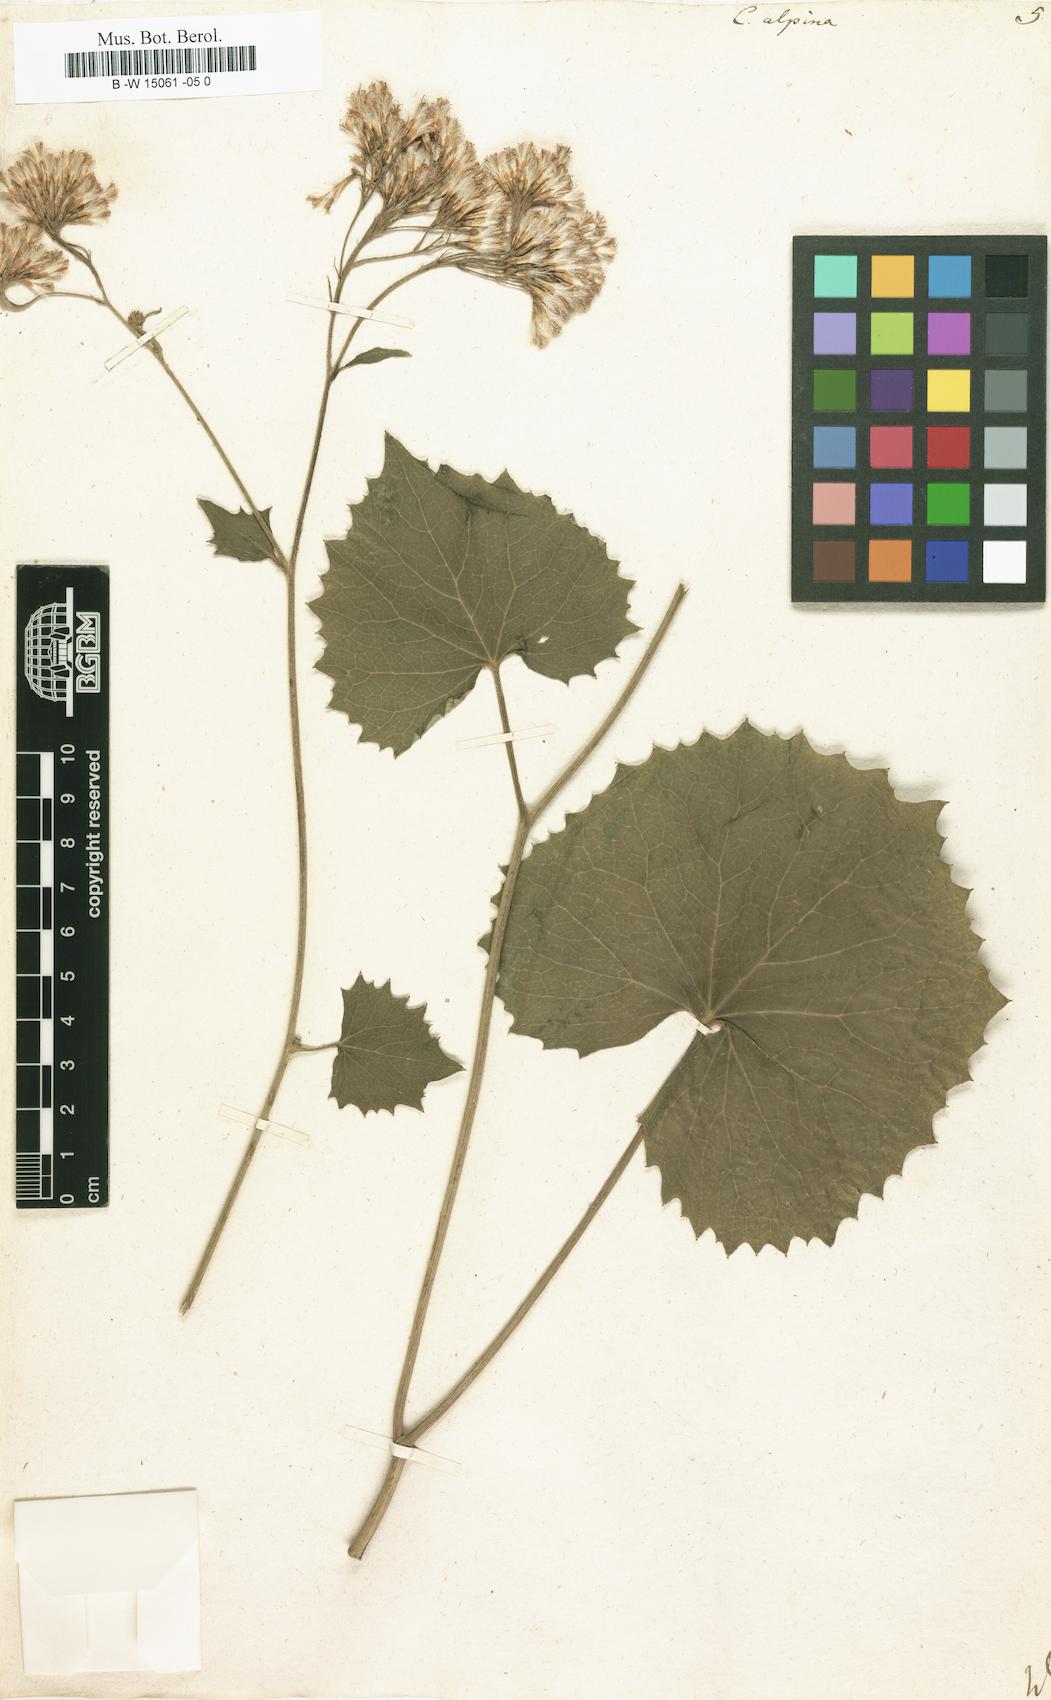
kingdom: Plantae
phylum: Tracheophyta
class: Magnoliopsida
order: Asterales
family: Asteraceae
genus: Adenostyles
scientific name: Adenostyles
